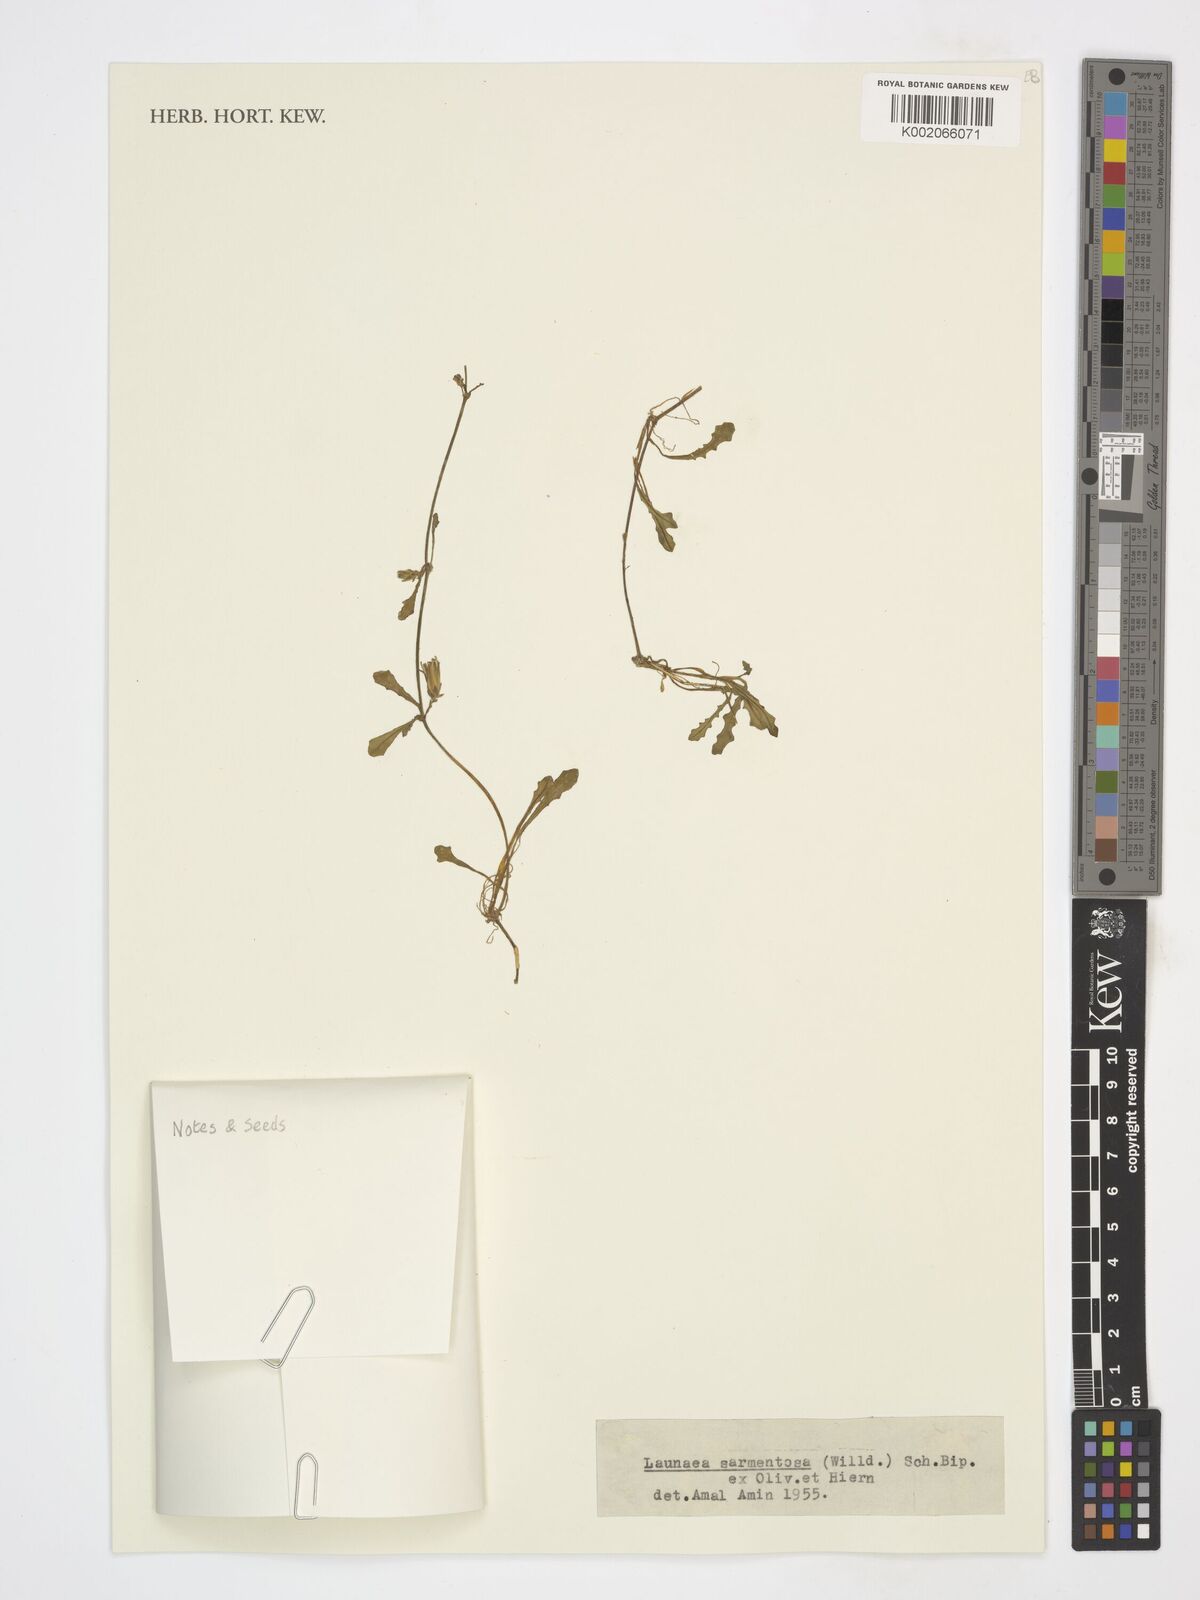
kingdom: Plantae
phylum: Tracheophyta
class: Magnoliopsida
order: Asterales
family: Asteraceae
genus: Launaea
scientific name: Launaea sarmentosa
